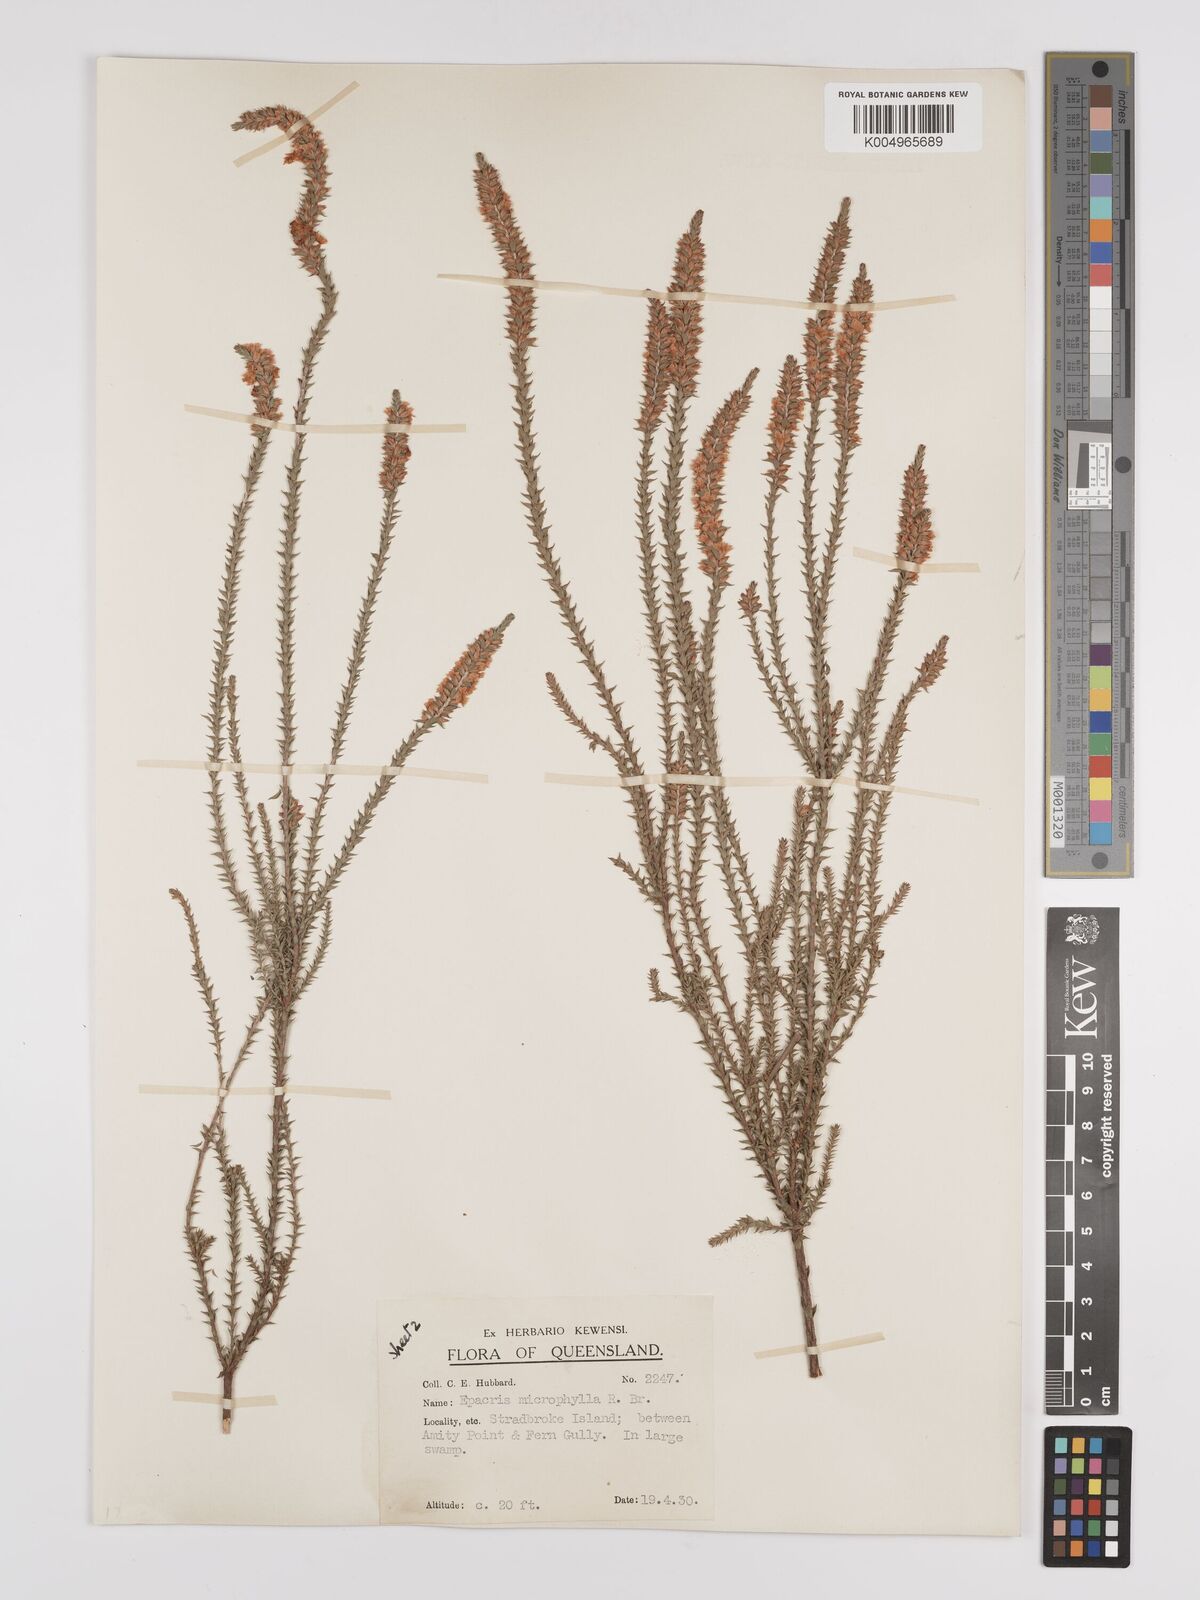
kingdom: Plantae
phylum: Tracheophyta
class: Magnoliopsida
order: Ericales
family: Ericaceae
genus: Epacris
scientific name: Epacris
